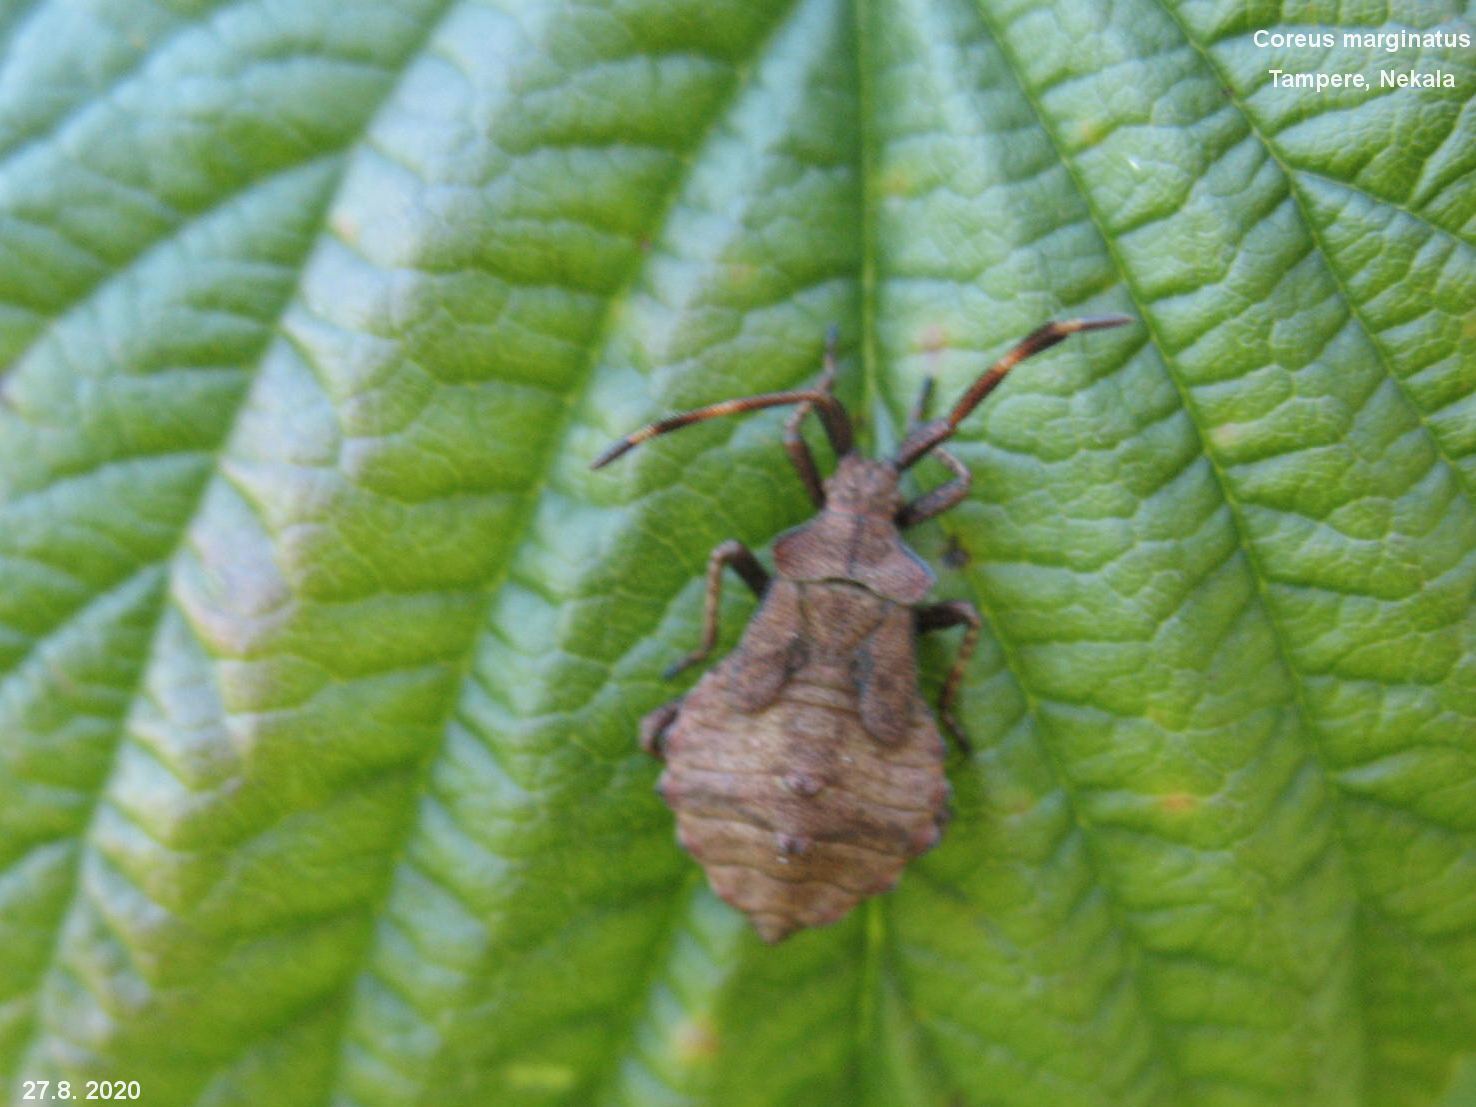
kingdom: Animalia
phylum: Arthropoda
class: Insecta
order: Hemiptera
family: Coreidae
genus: Coreus
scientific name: Coreus marginatus
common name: Dock bug
